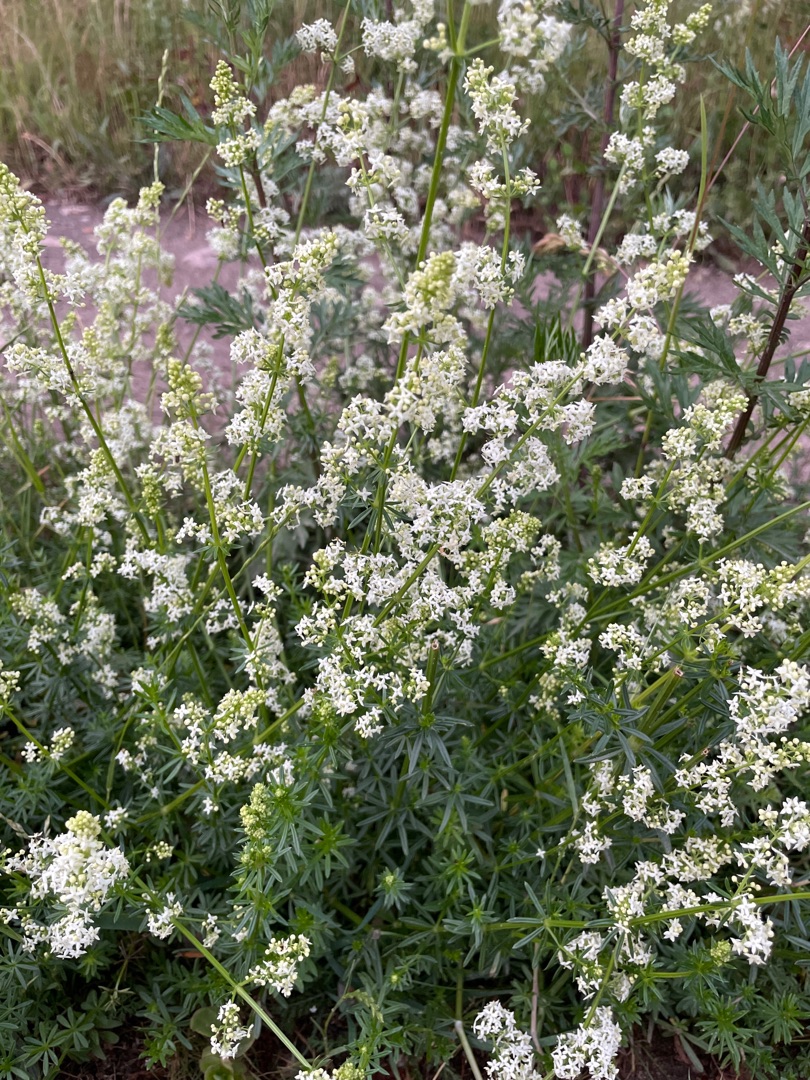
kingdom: Plantae
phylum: Tracheophyta
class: Magnoliopsida
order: Gentianales
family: Rubiaceae
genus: Galium
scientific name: Galium mollugo
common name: Hvid snerre
